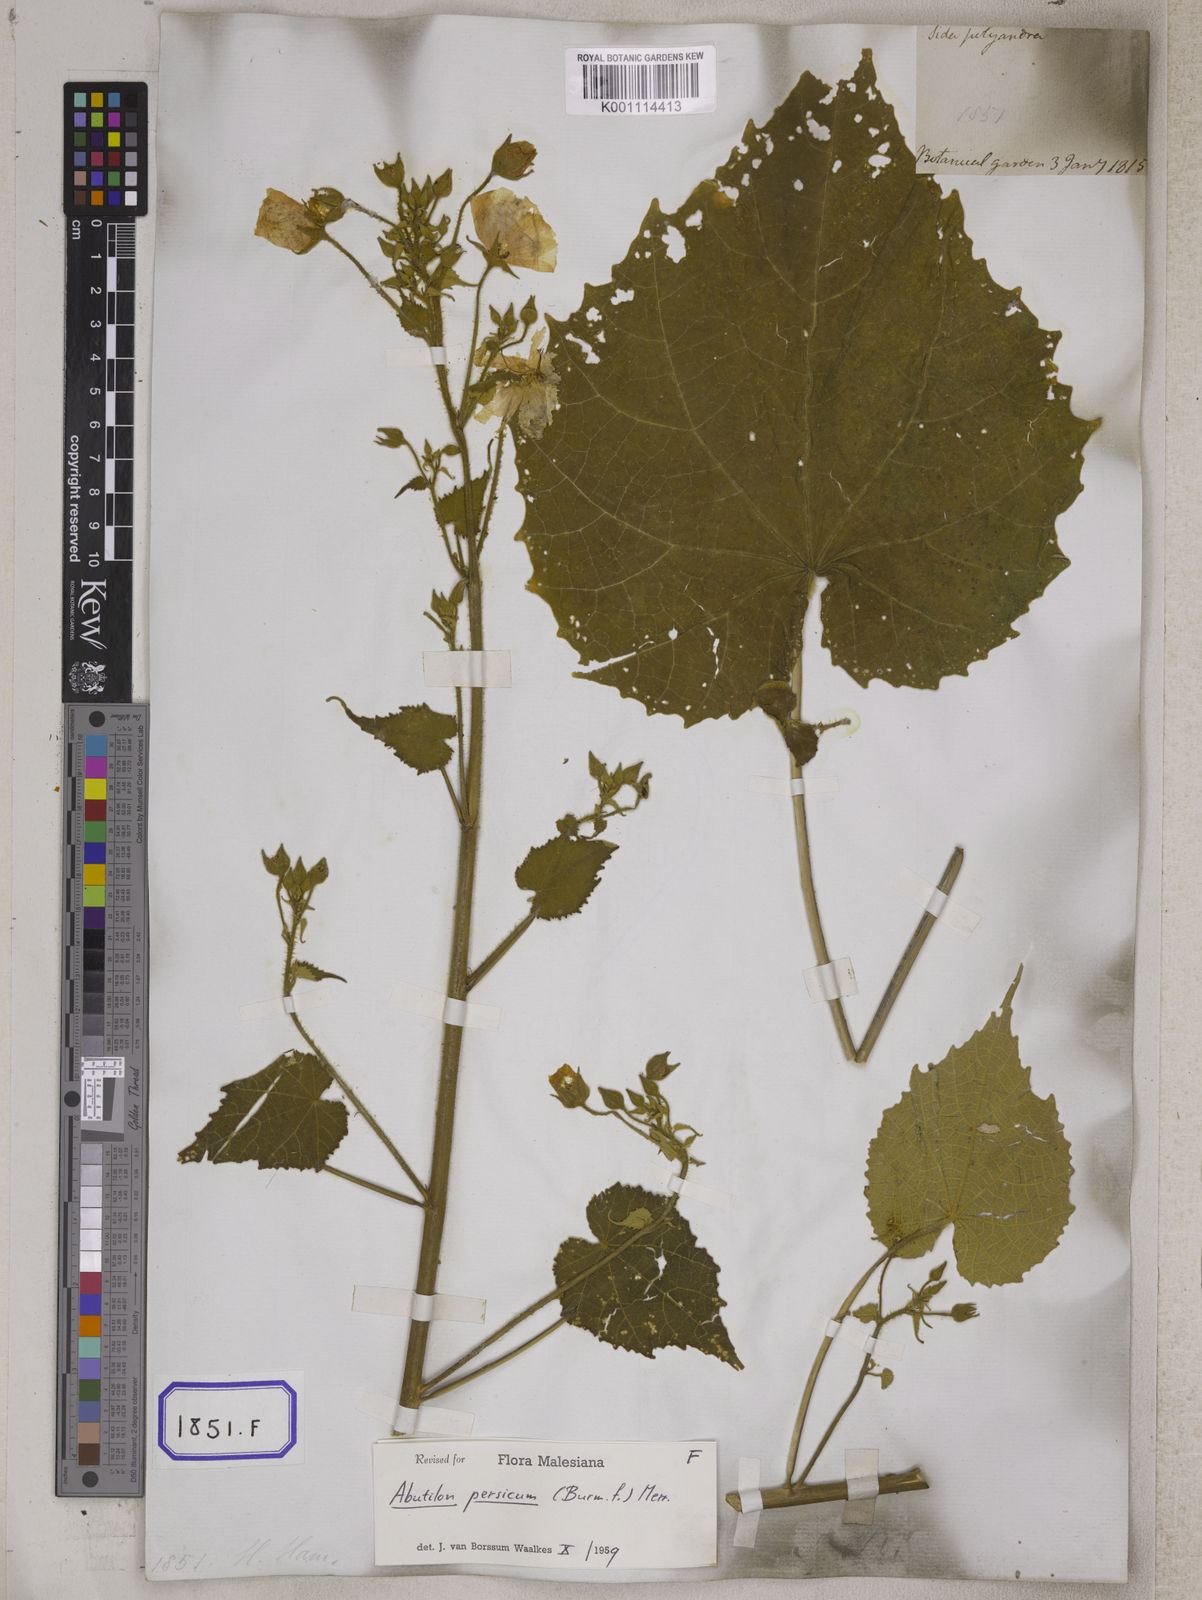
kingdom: Plantae
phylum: Tracheophyta
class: Magnoliopsida
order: Malvales
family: Malvaceae
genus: Abutilon
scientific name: Abutilon persicum
